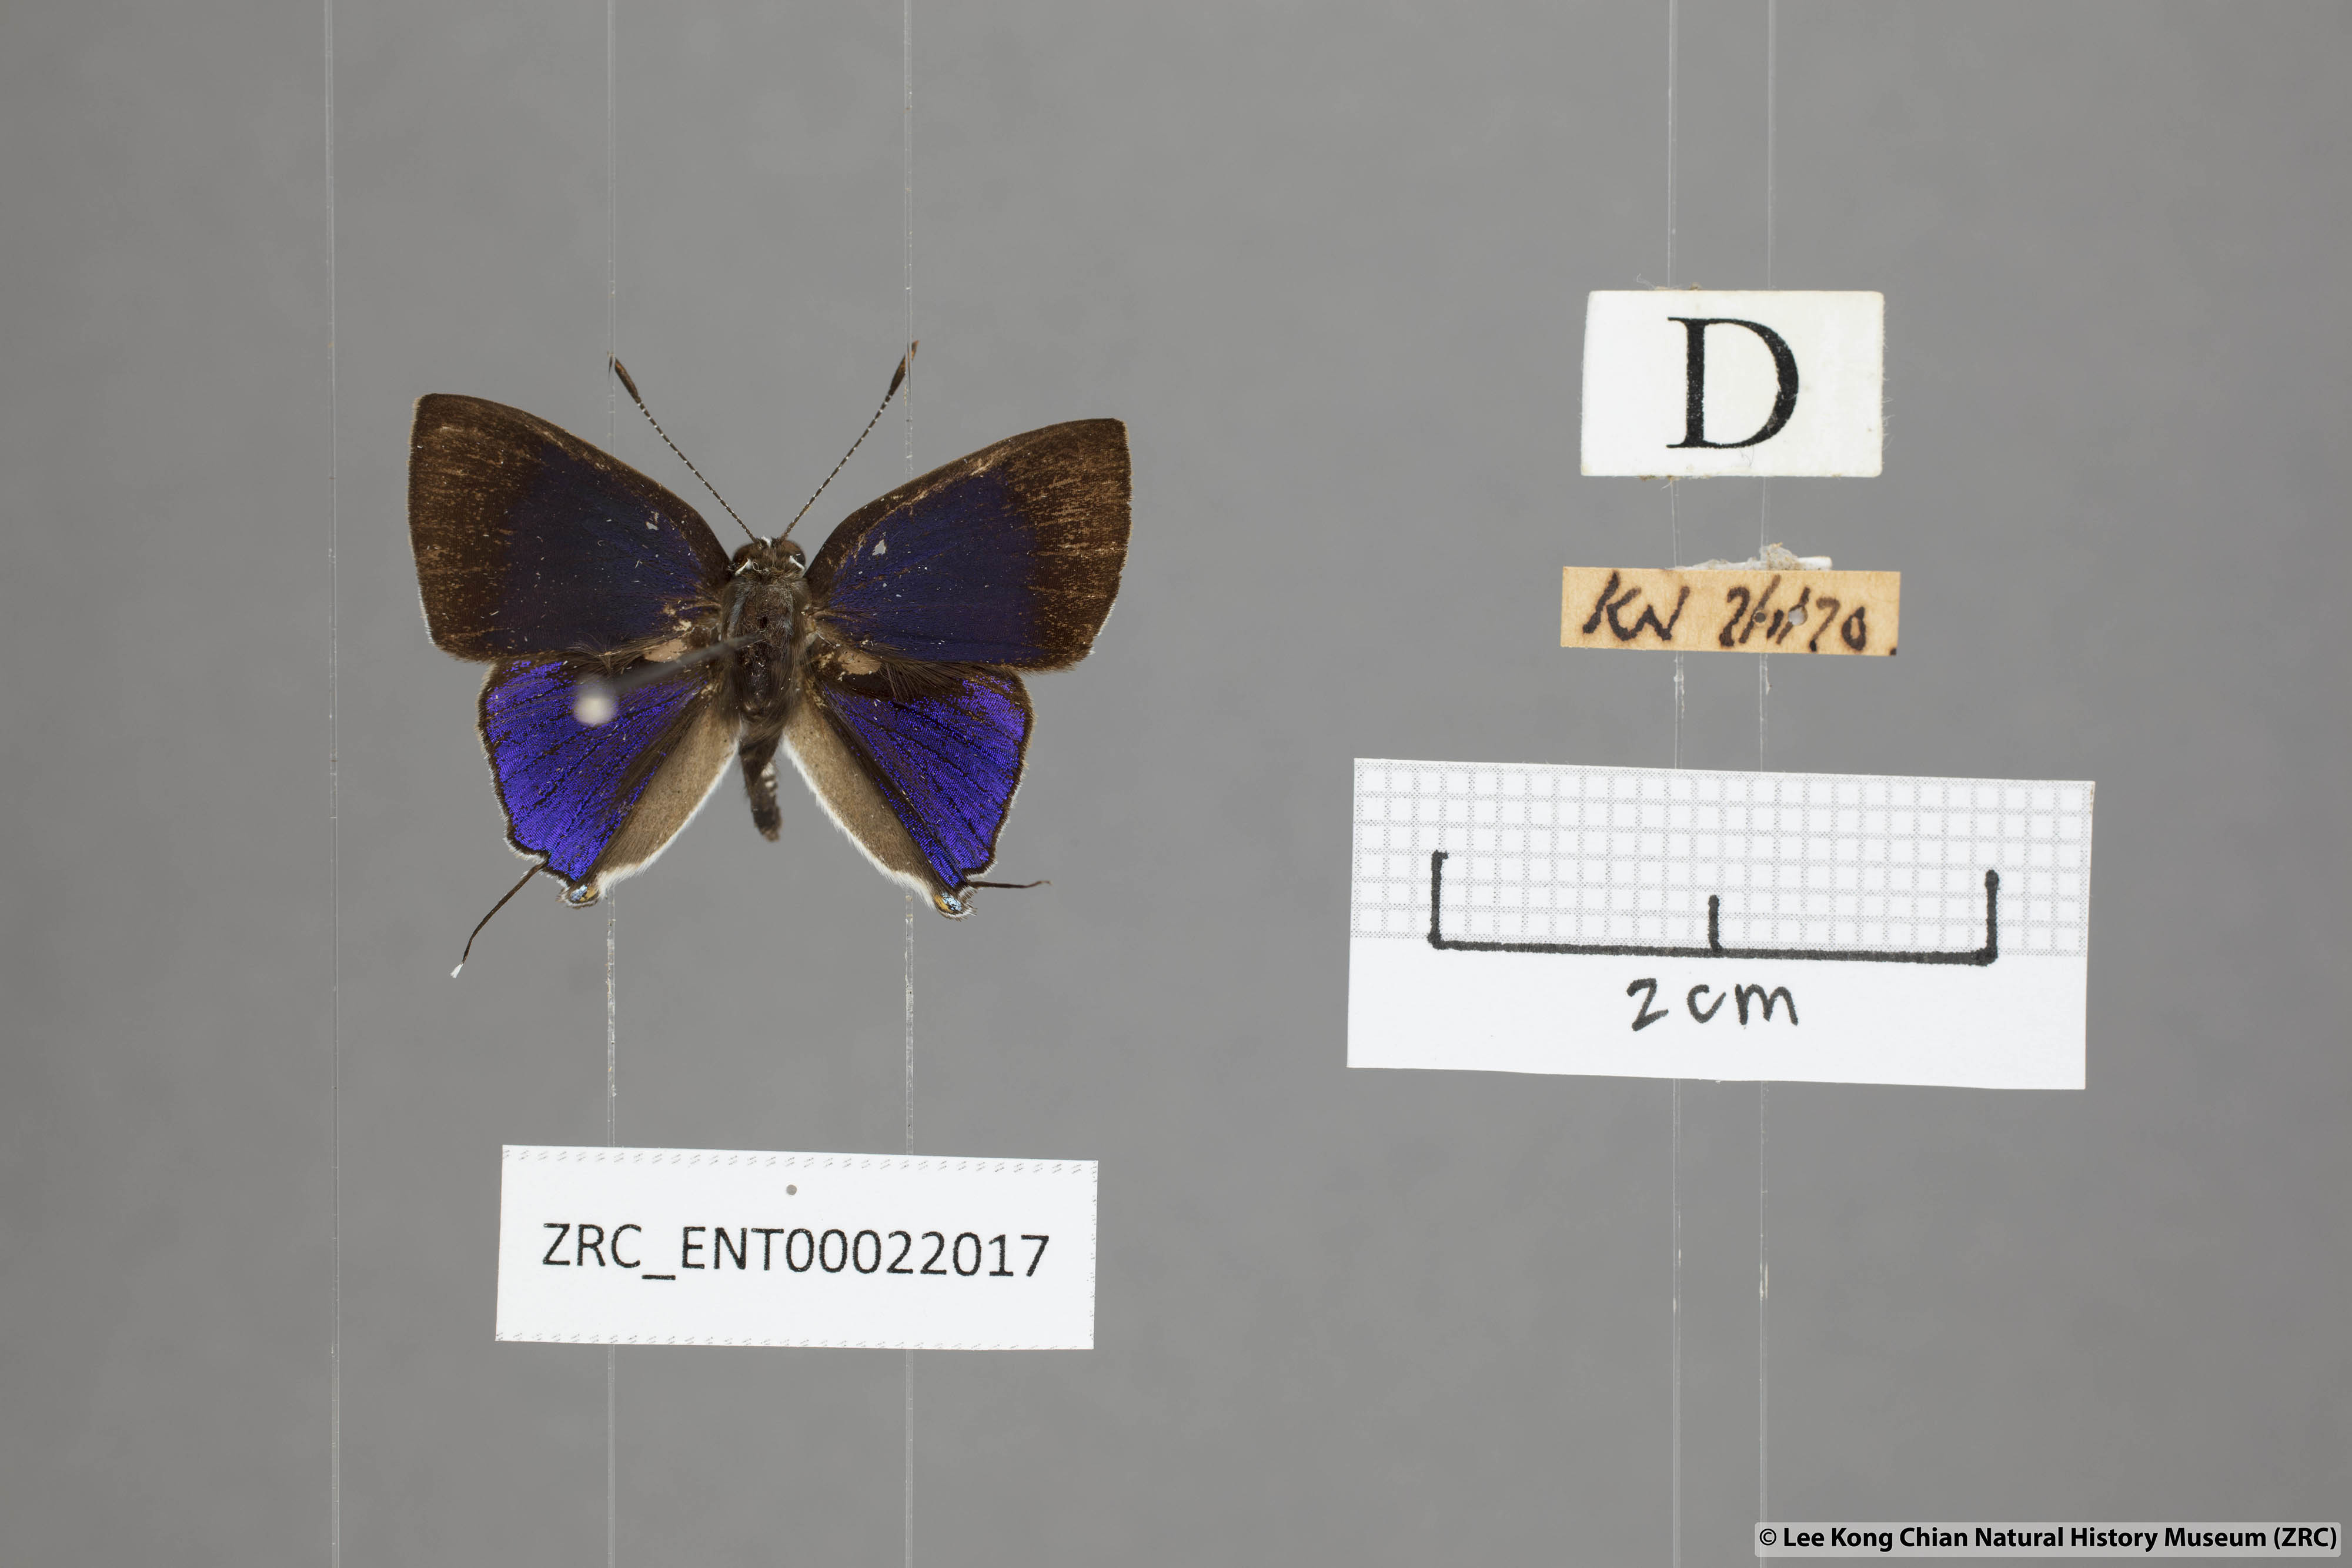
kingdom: Animalia
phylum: Arthropoda
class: Insecta
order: Lepidoptera
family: Lycaenidae
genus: Sinthusa
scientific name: Sinthusa nasaka
